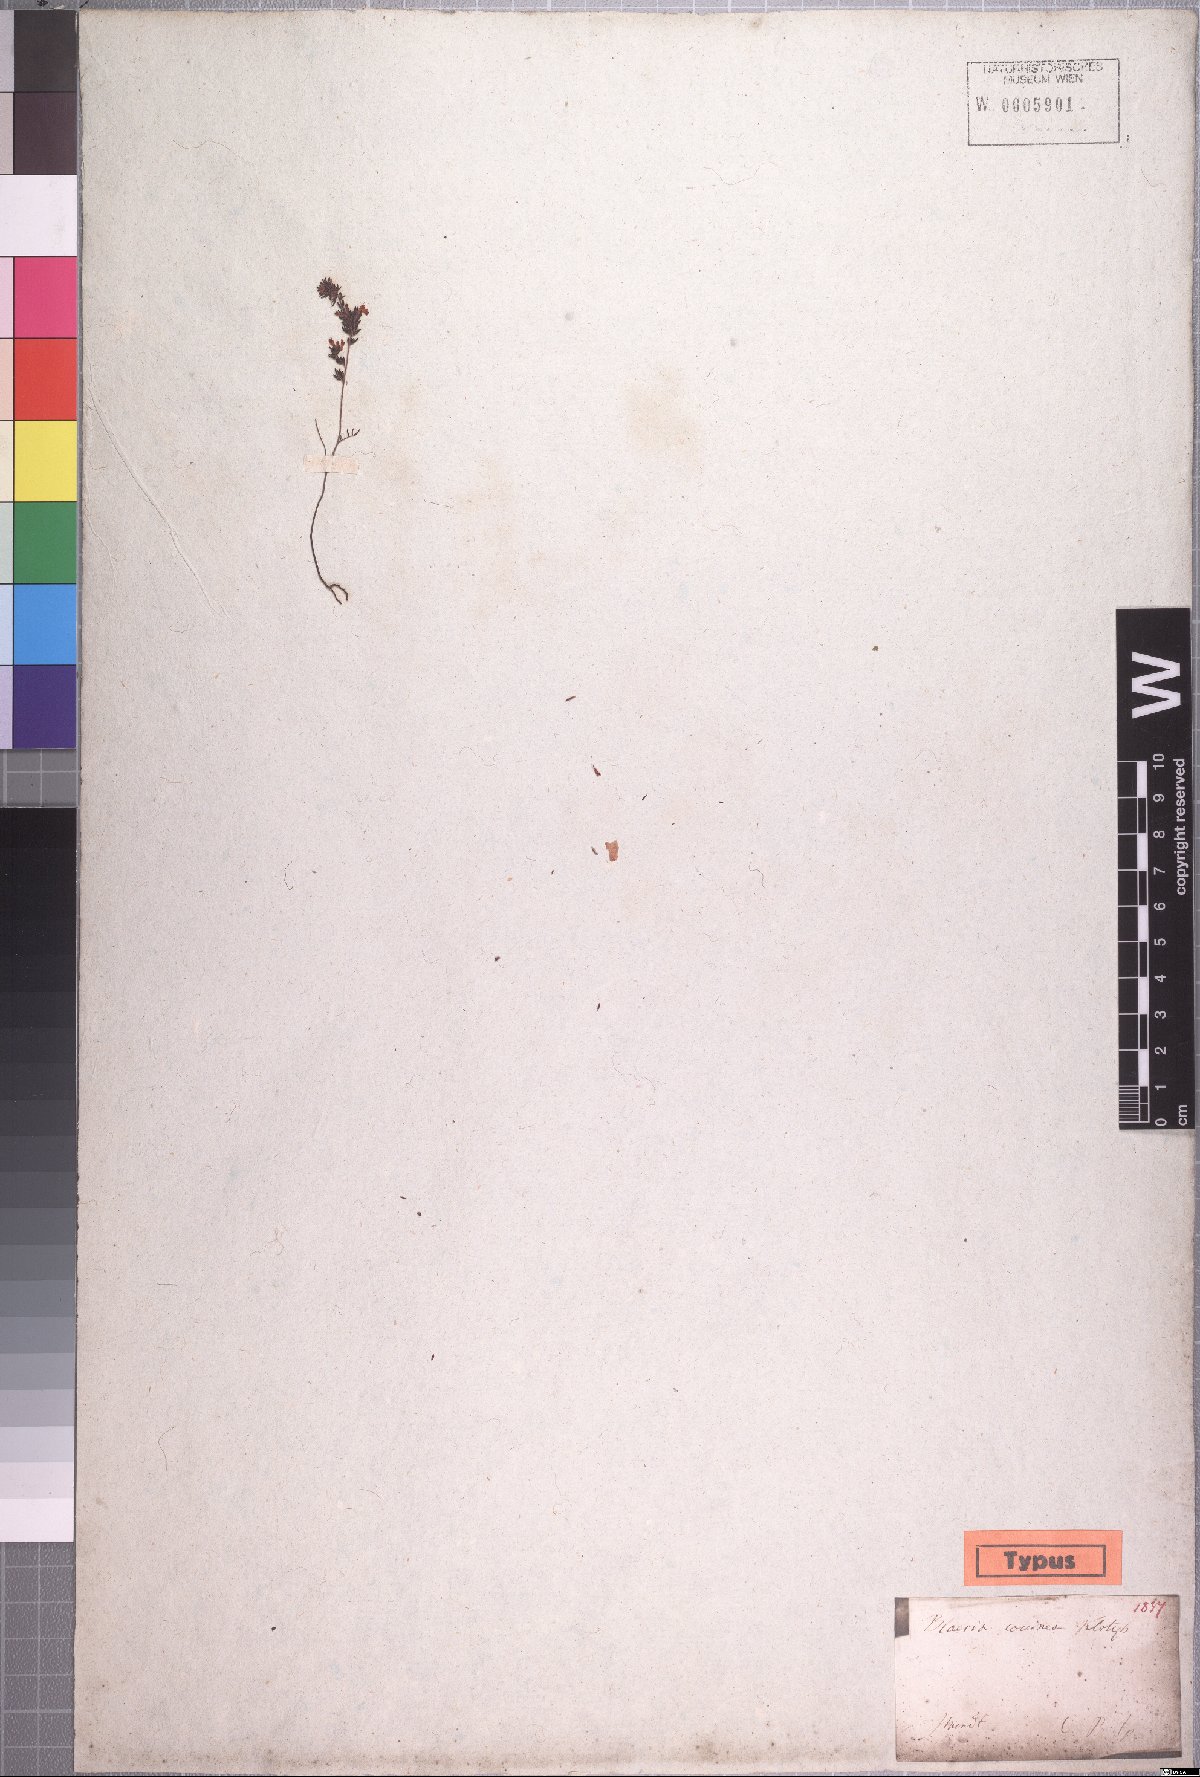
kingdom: Plantae
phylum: Tracheophyta
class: Magnoliopsida
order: Ericales
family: Ericaceae
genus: Erica
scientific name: Erica longimontana
